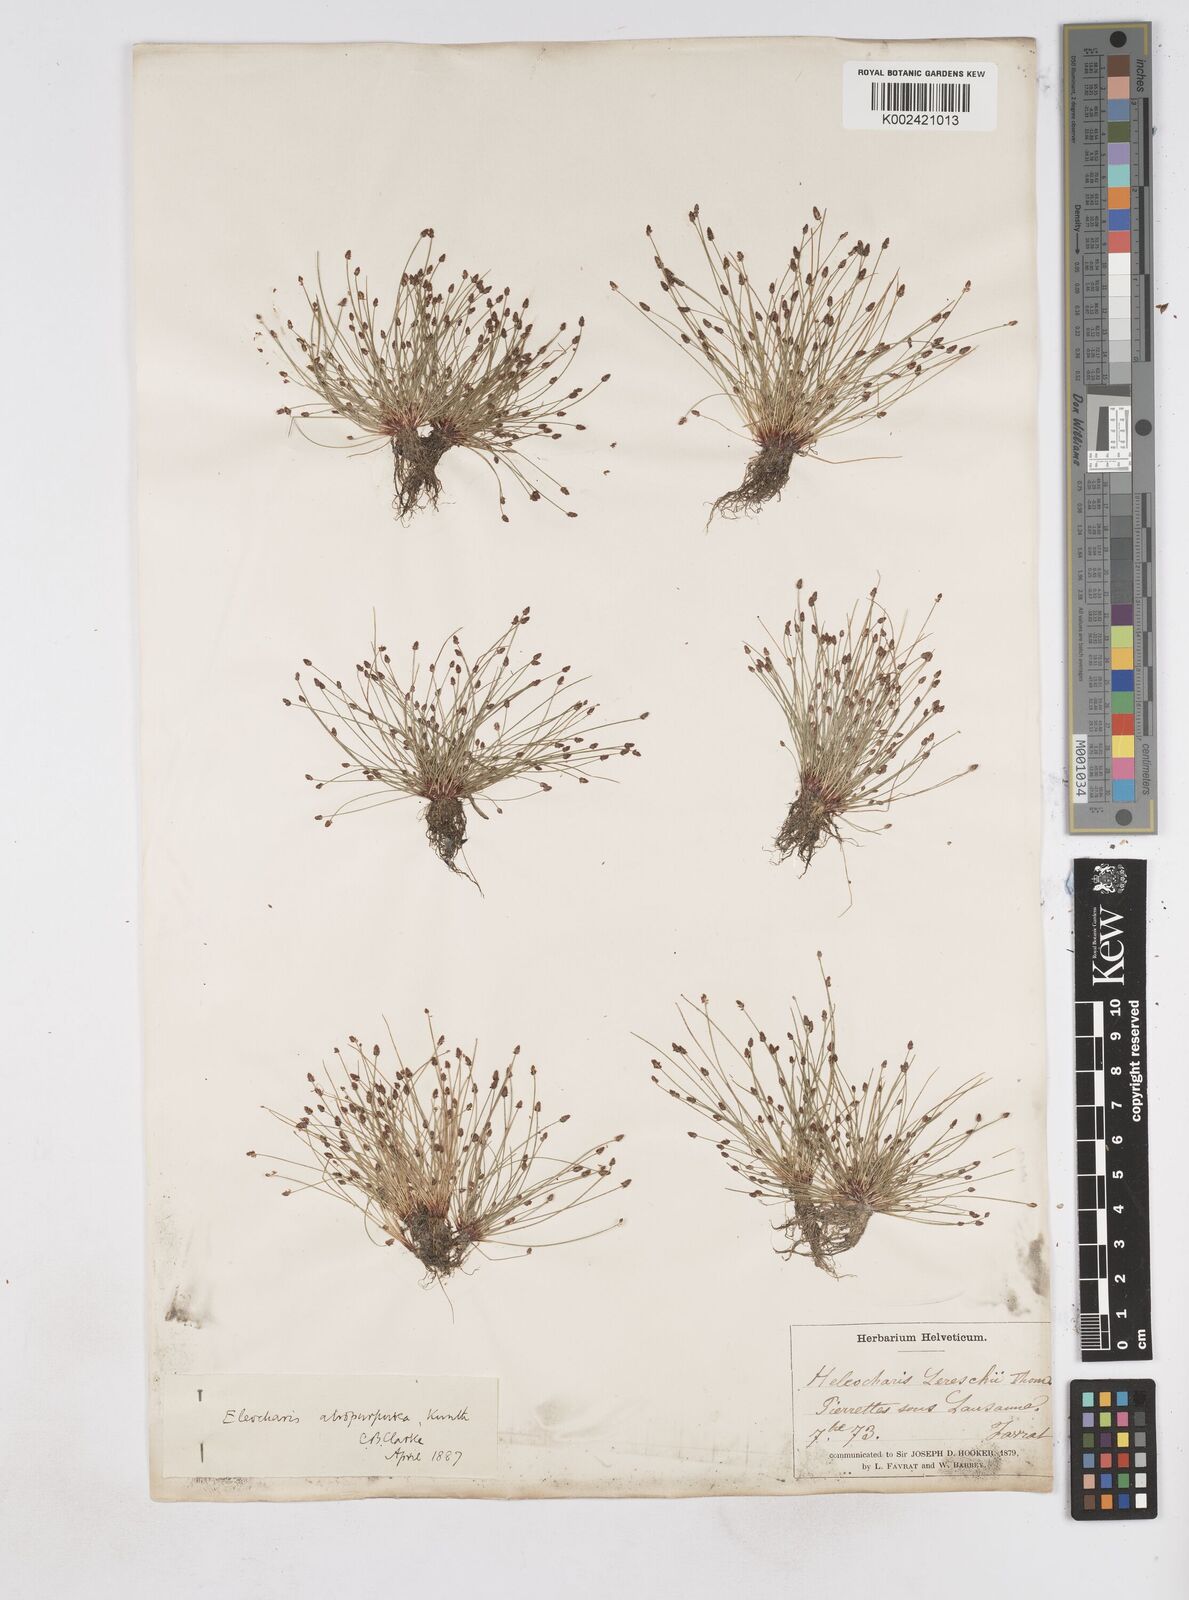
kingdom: Plantae
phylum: Tracheophyta
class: Liliopsida
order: Poales
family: Cyperaceae
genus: Eleocharis
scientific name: Eleocharis atropurpurea
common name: Purple spikerush
